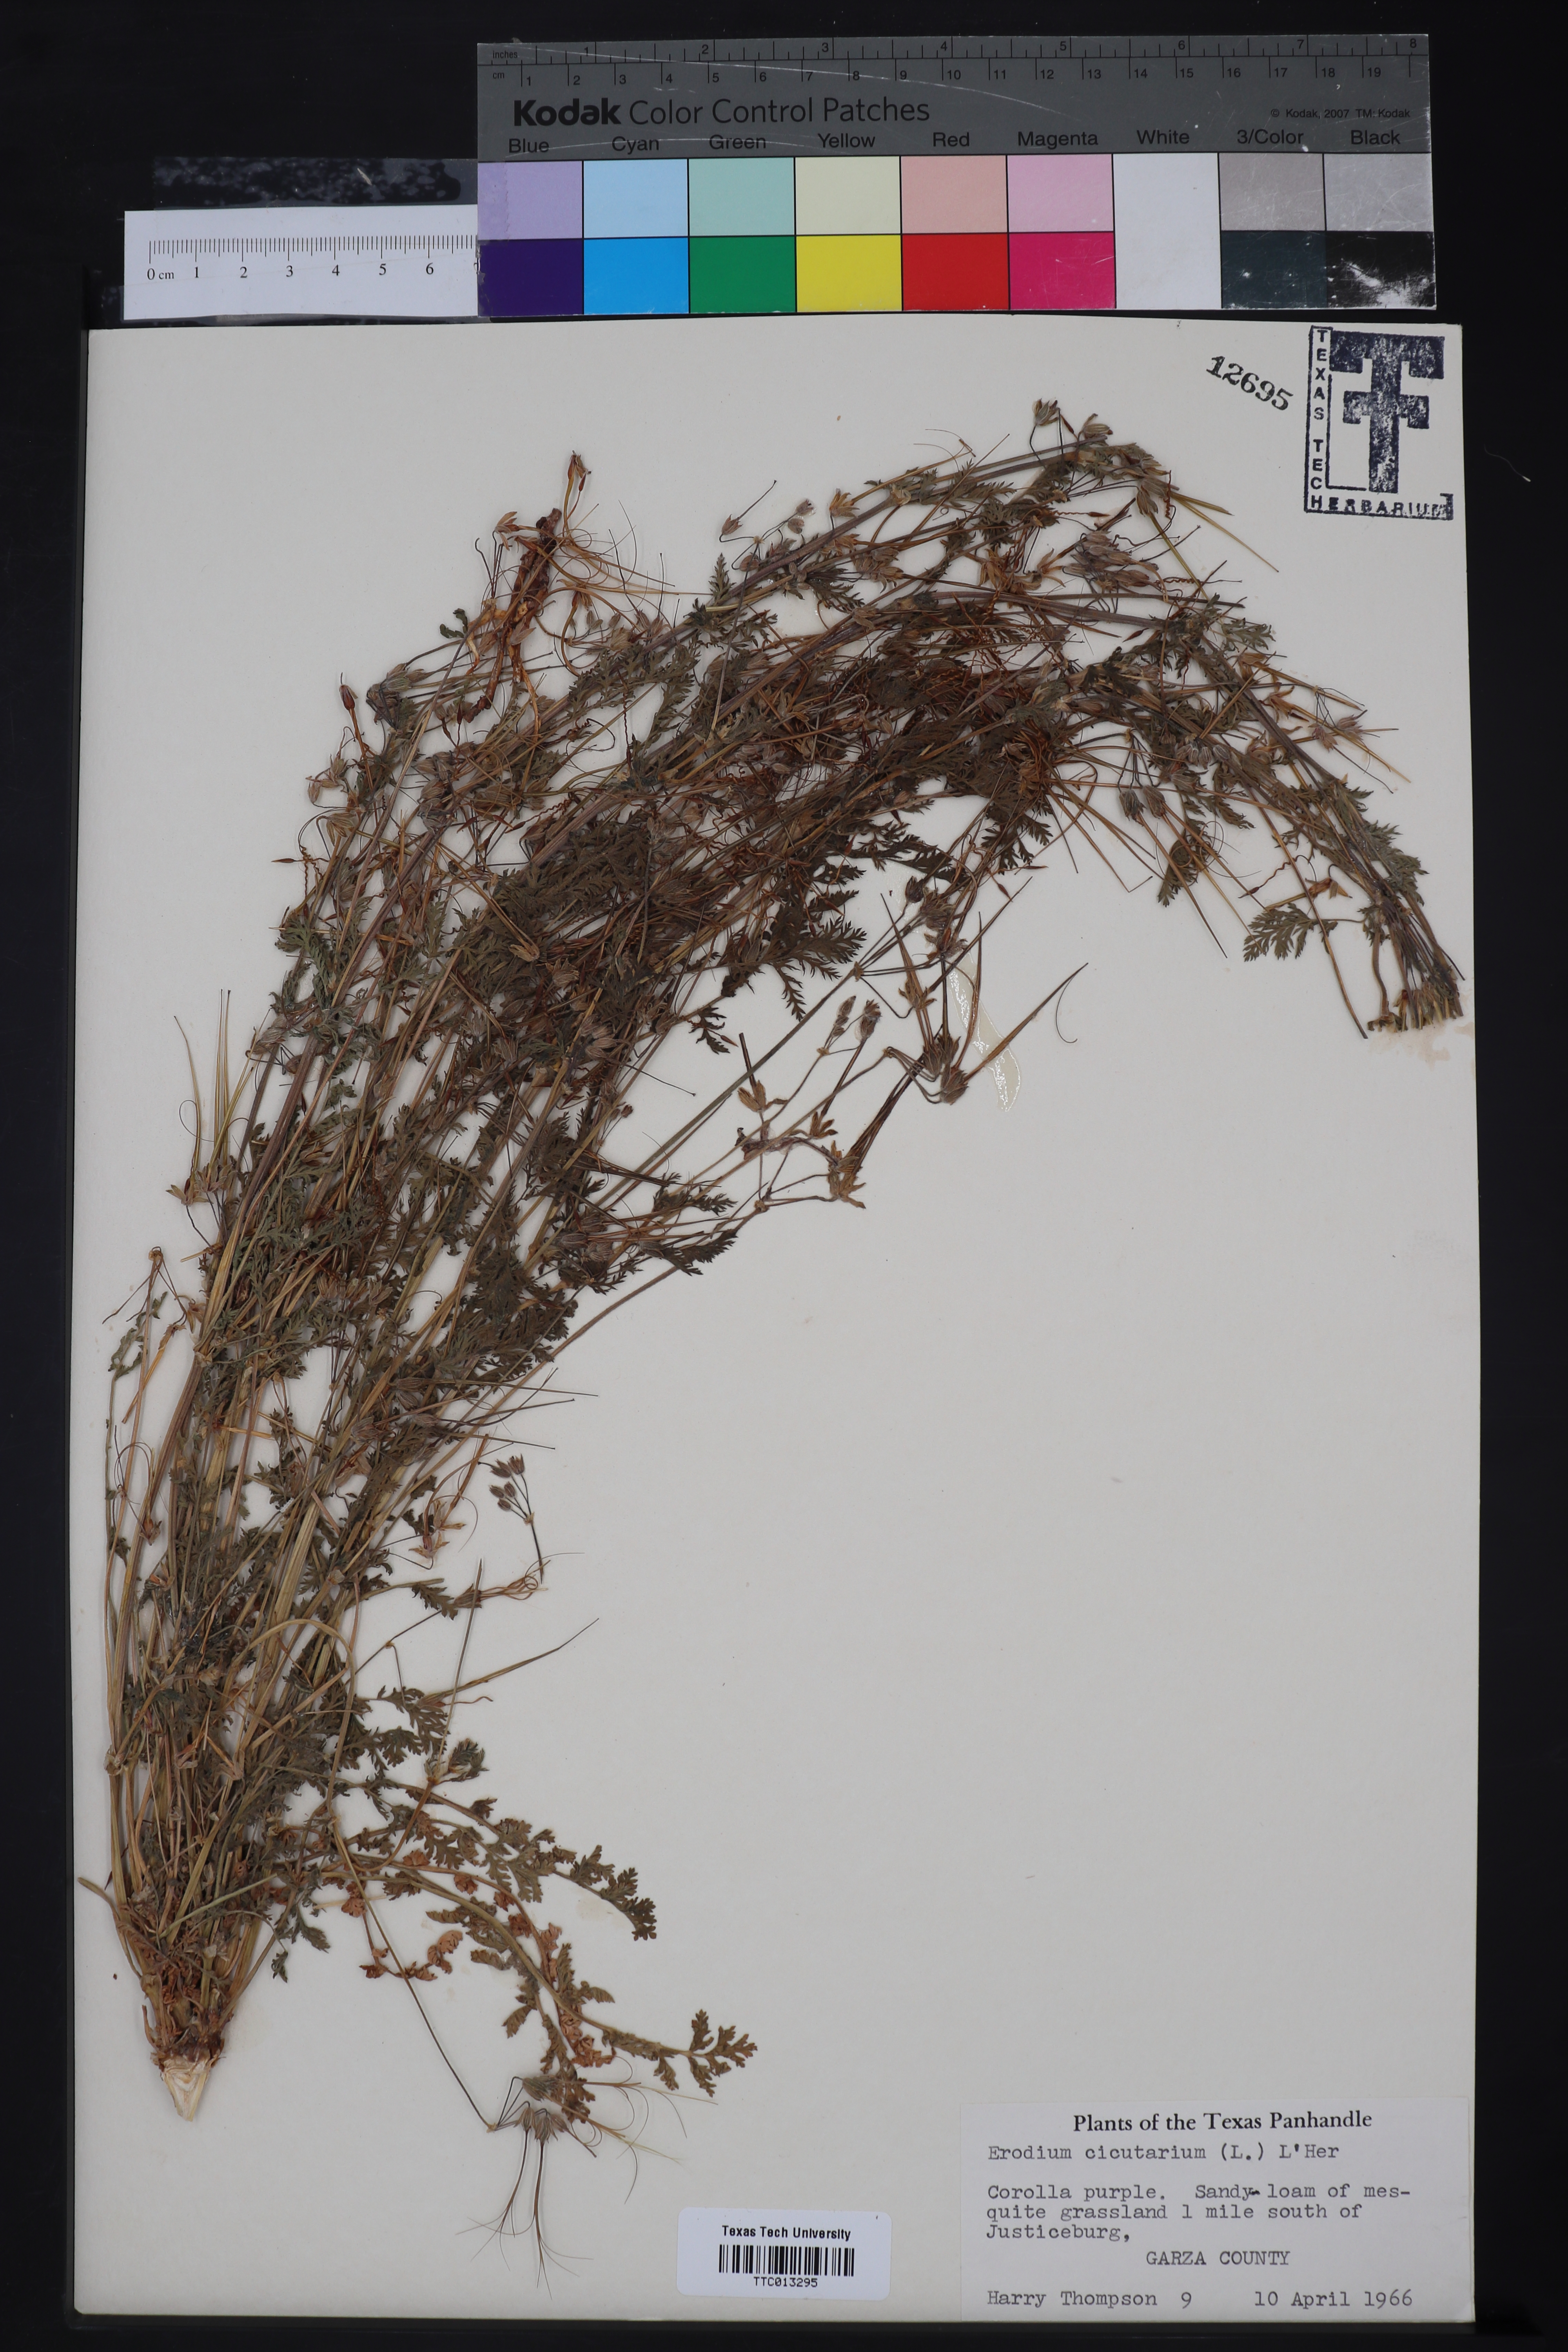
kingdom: Plantae
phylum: Tracheophyta
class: Magnoliopsida
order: Geraniales
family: Geraniaceae
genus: Erodium
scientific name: Erodium cicutarium
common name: Common stork's-bill
